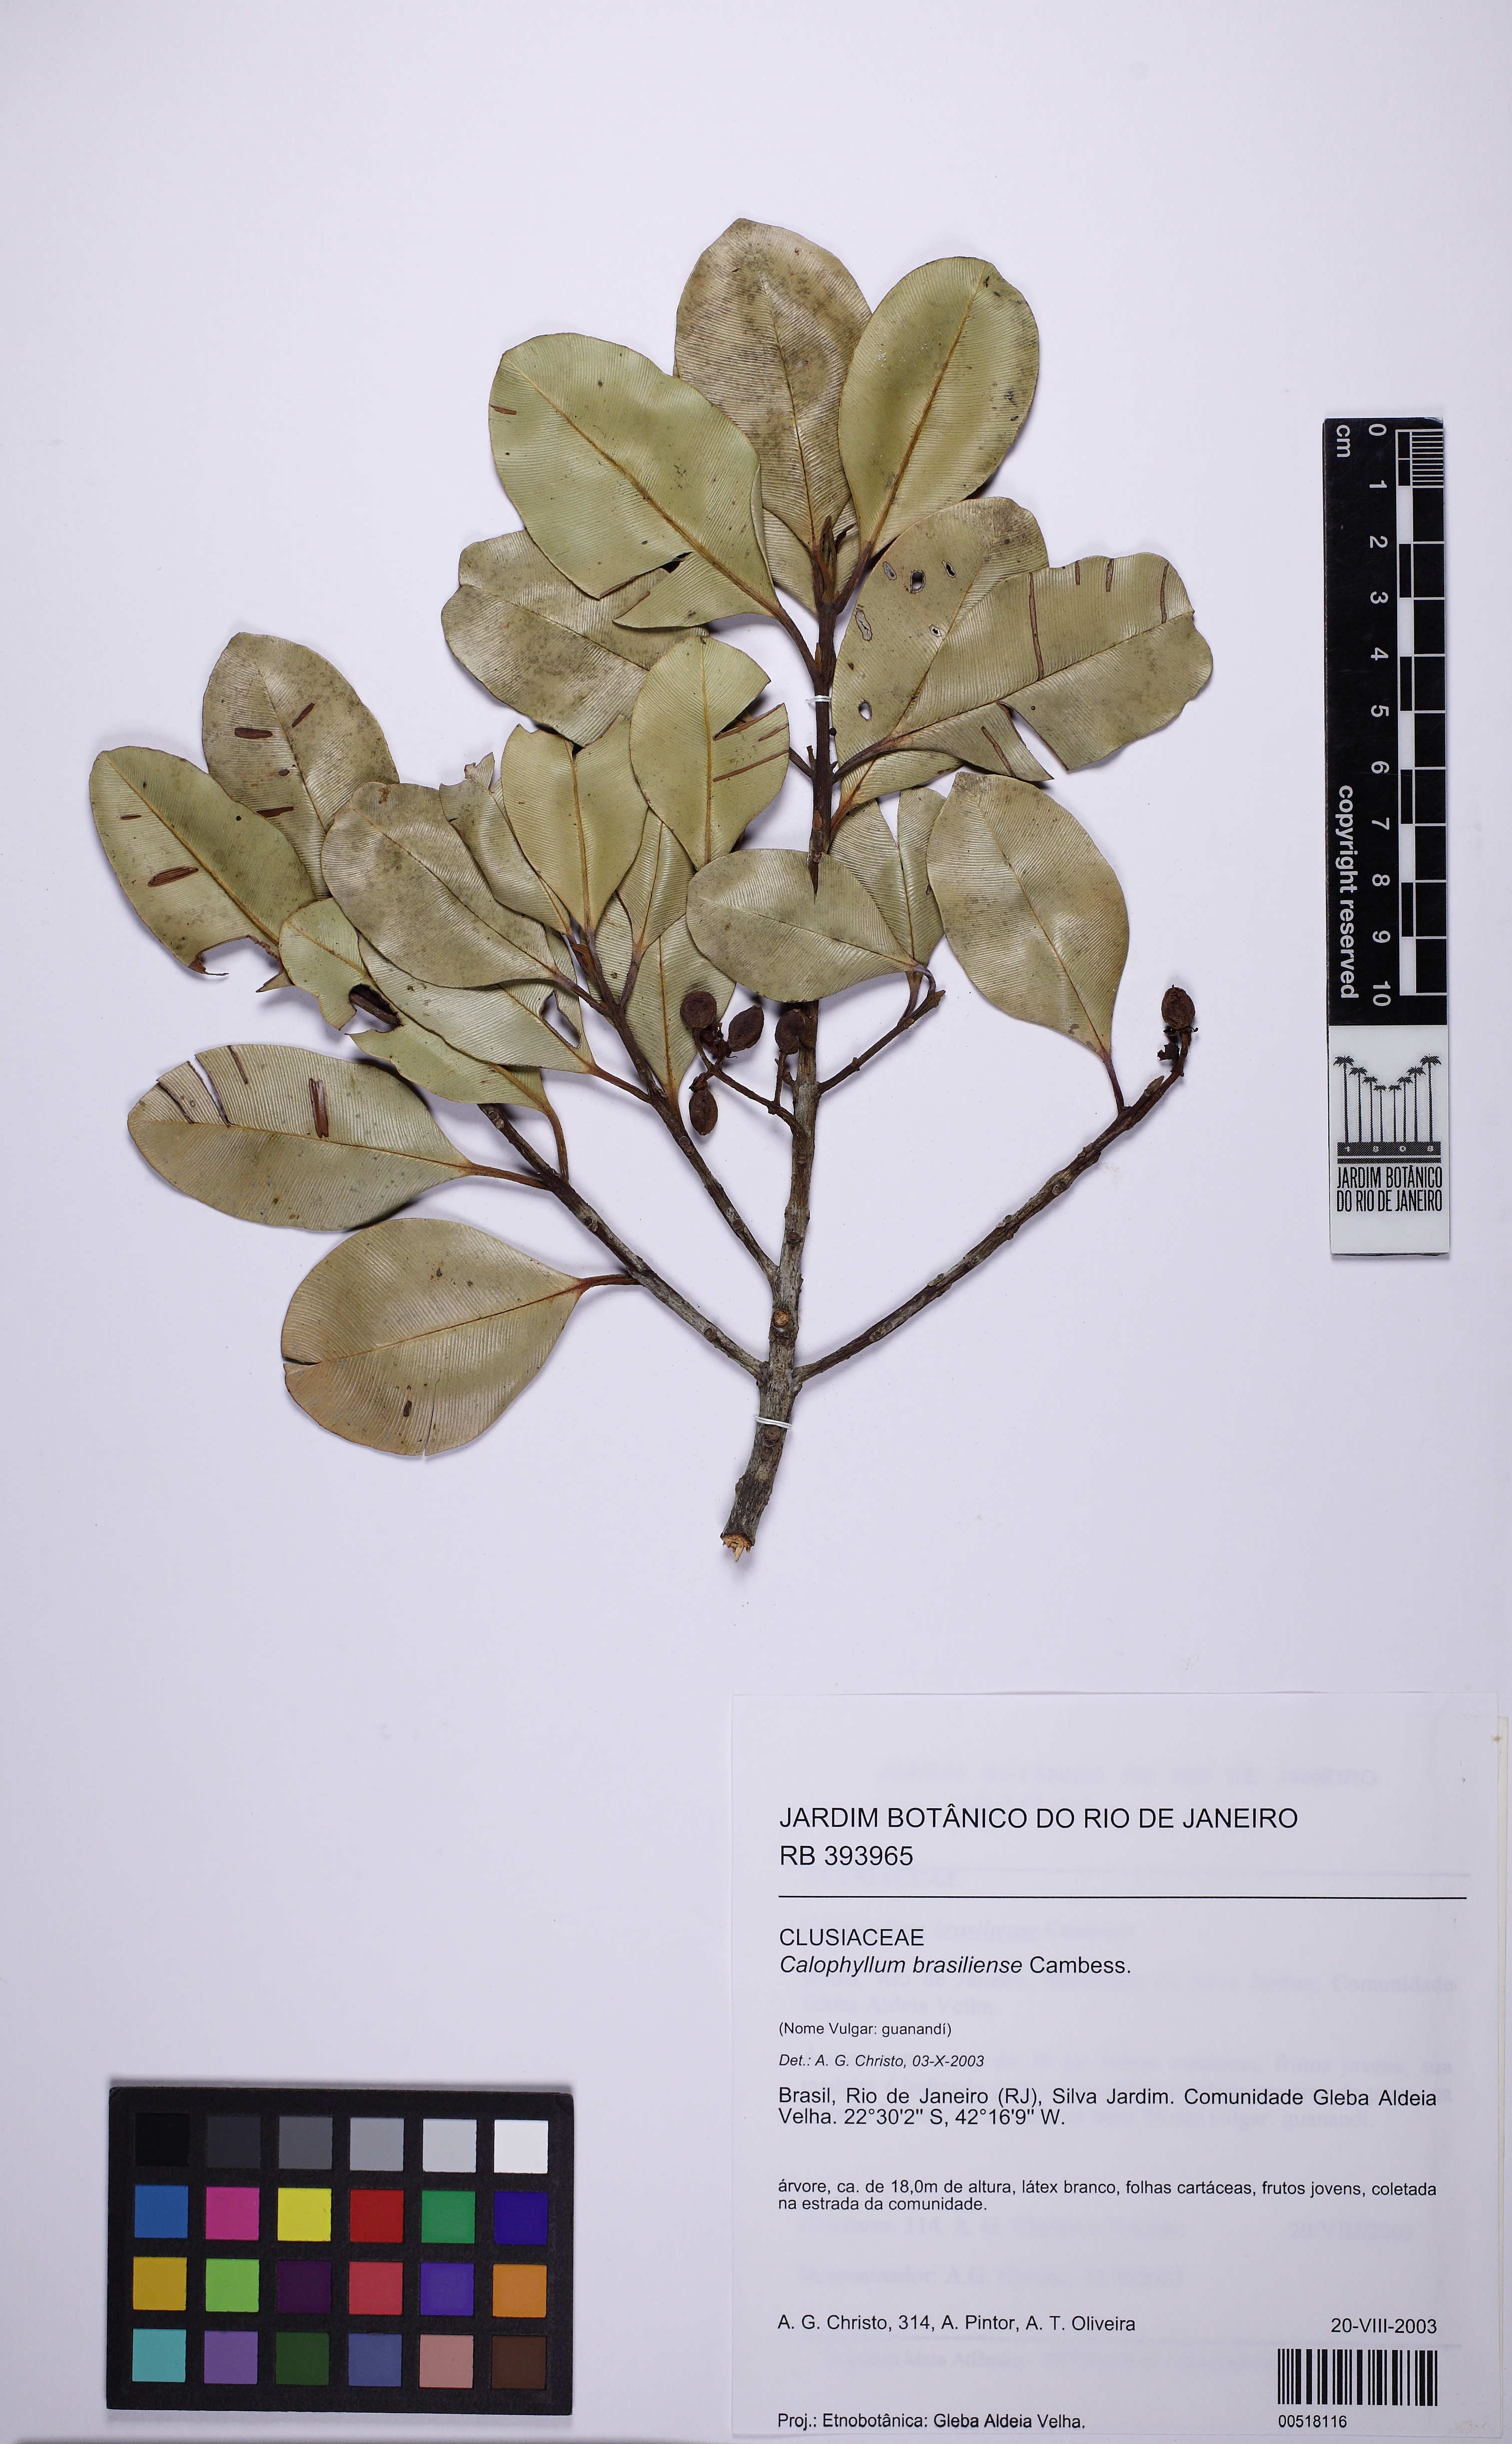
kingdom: Plantae
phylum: Tracheophyta
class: Magnoliopsida
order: Malpighiales
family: Calophyllaceae
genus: Calophyllum
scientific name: Calophyllum brasiliense
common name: Santa maria
